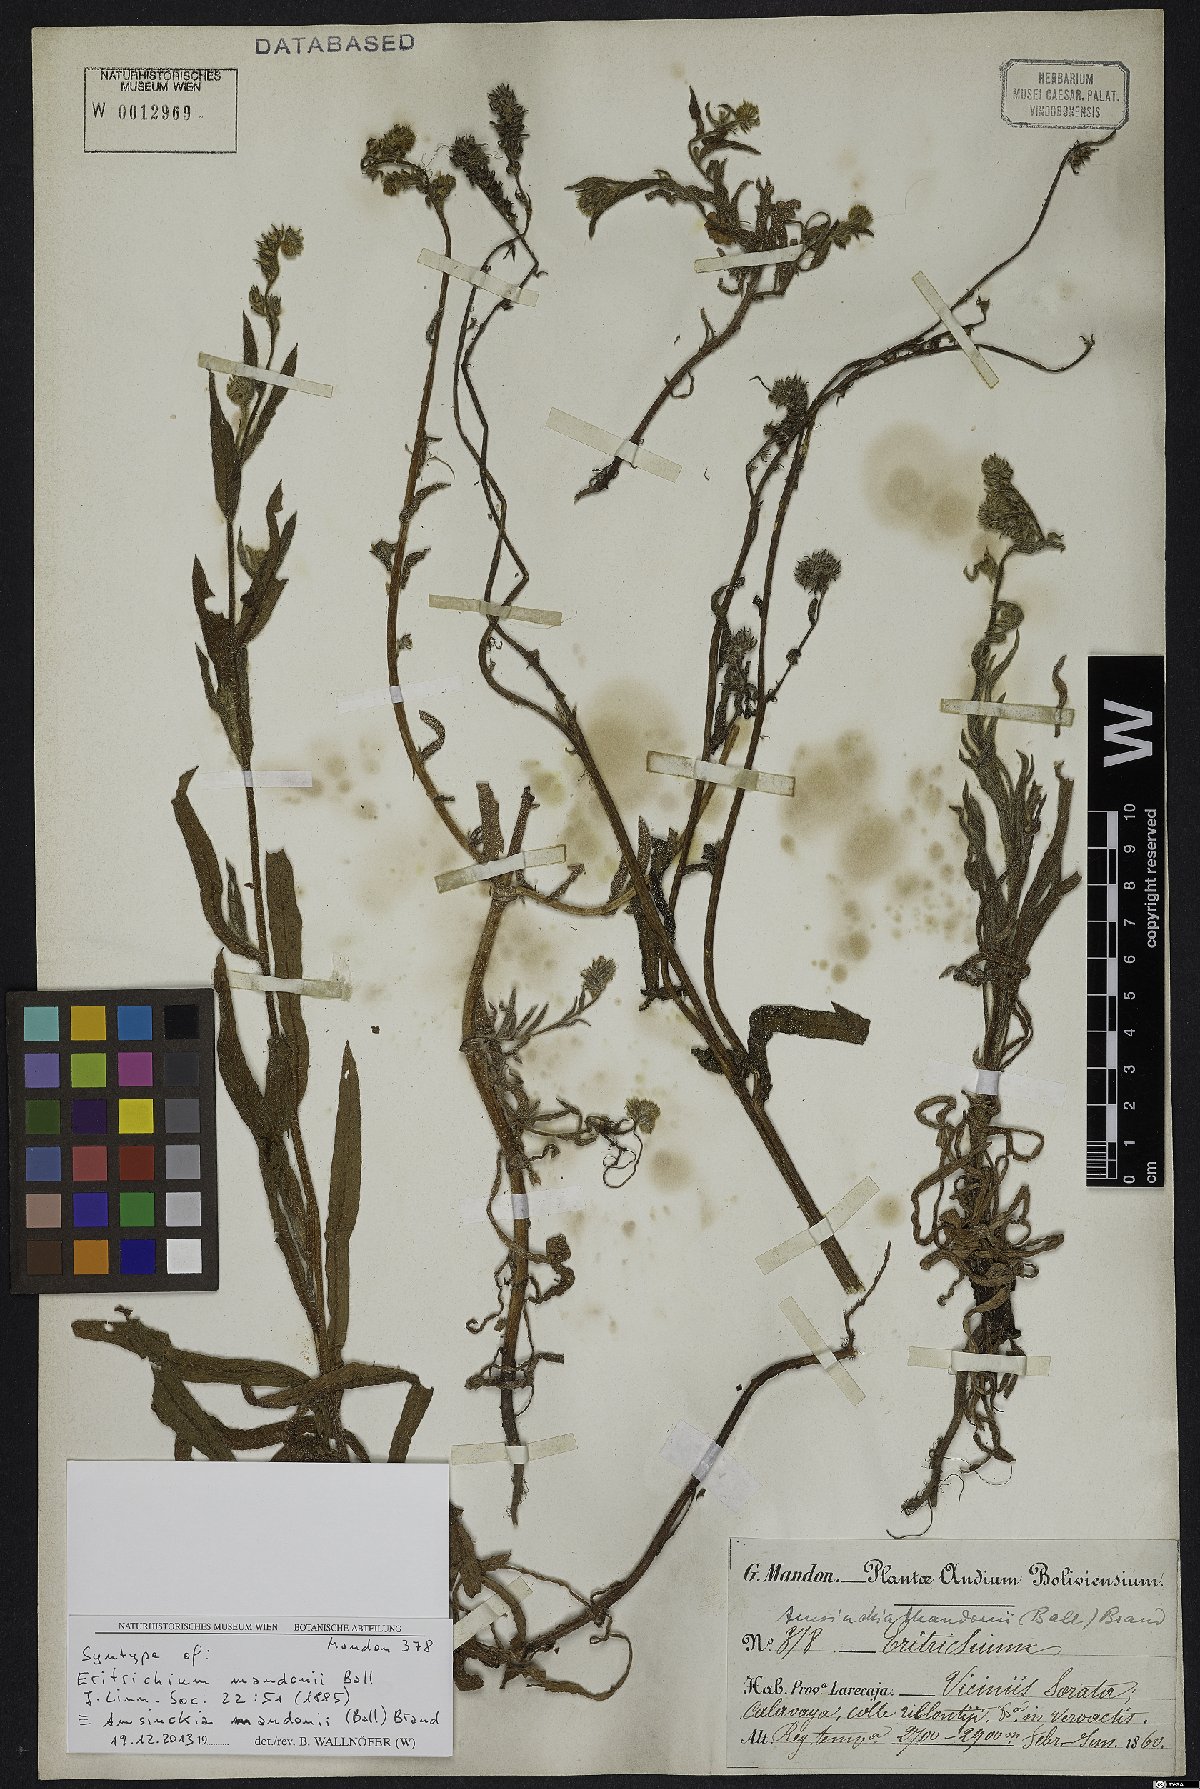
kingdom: Plantae
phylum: Tracheophyta
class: Magnoliopsida
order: Boraginales
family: Boraginaceae
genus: Amsinckia
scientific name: Amsinckia calycina
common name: Hairy fiddleneck
